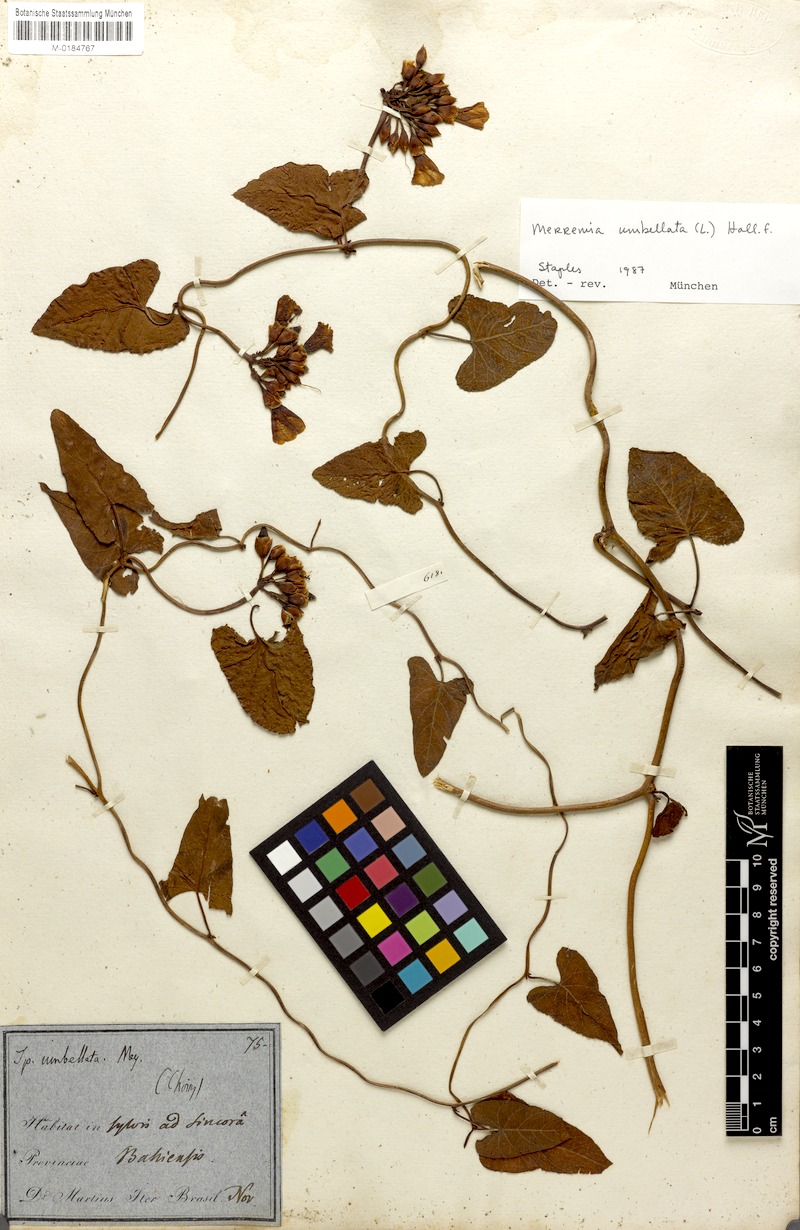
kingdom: Plantae
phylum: Tracheophyta
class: Magnoliopsida
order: Solanales
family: Convolvulaceae
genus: Camonea
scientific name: Camonea umbellata
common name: Hogvine
